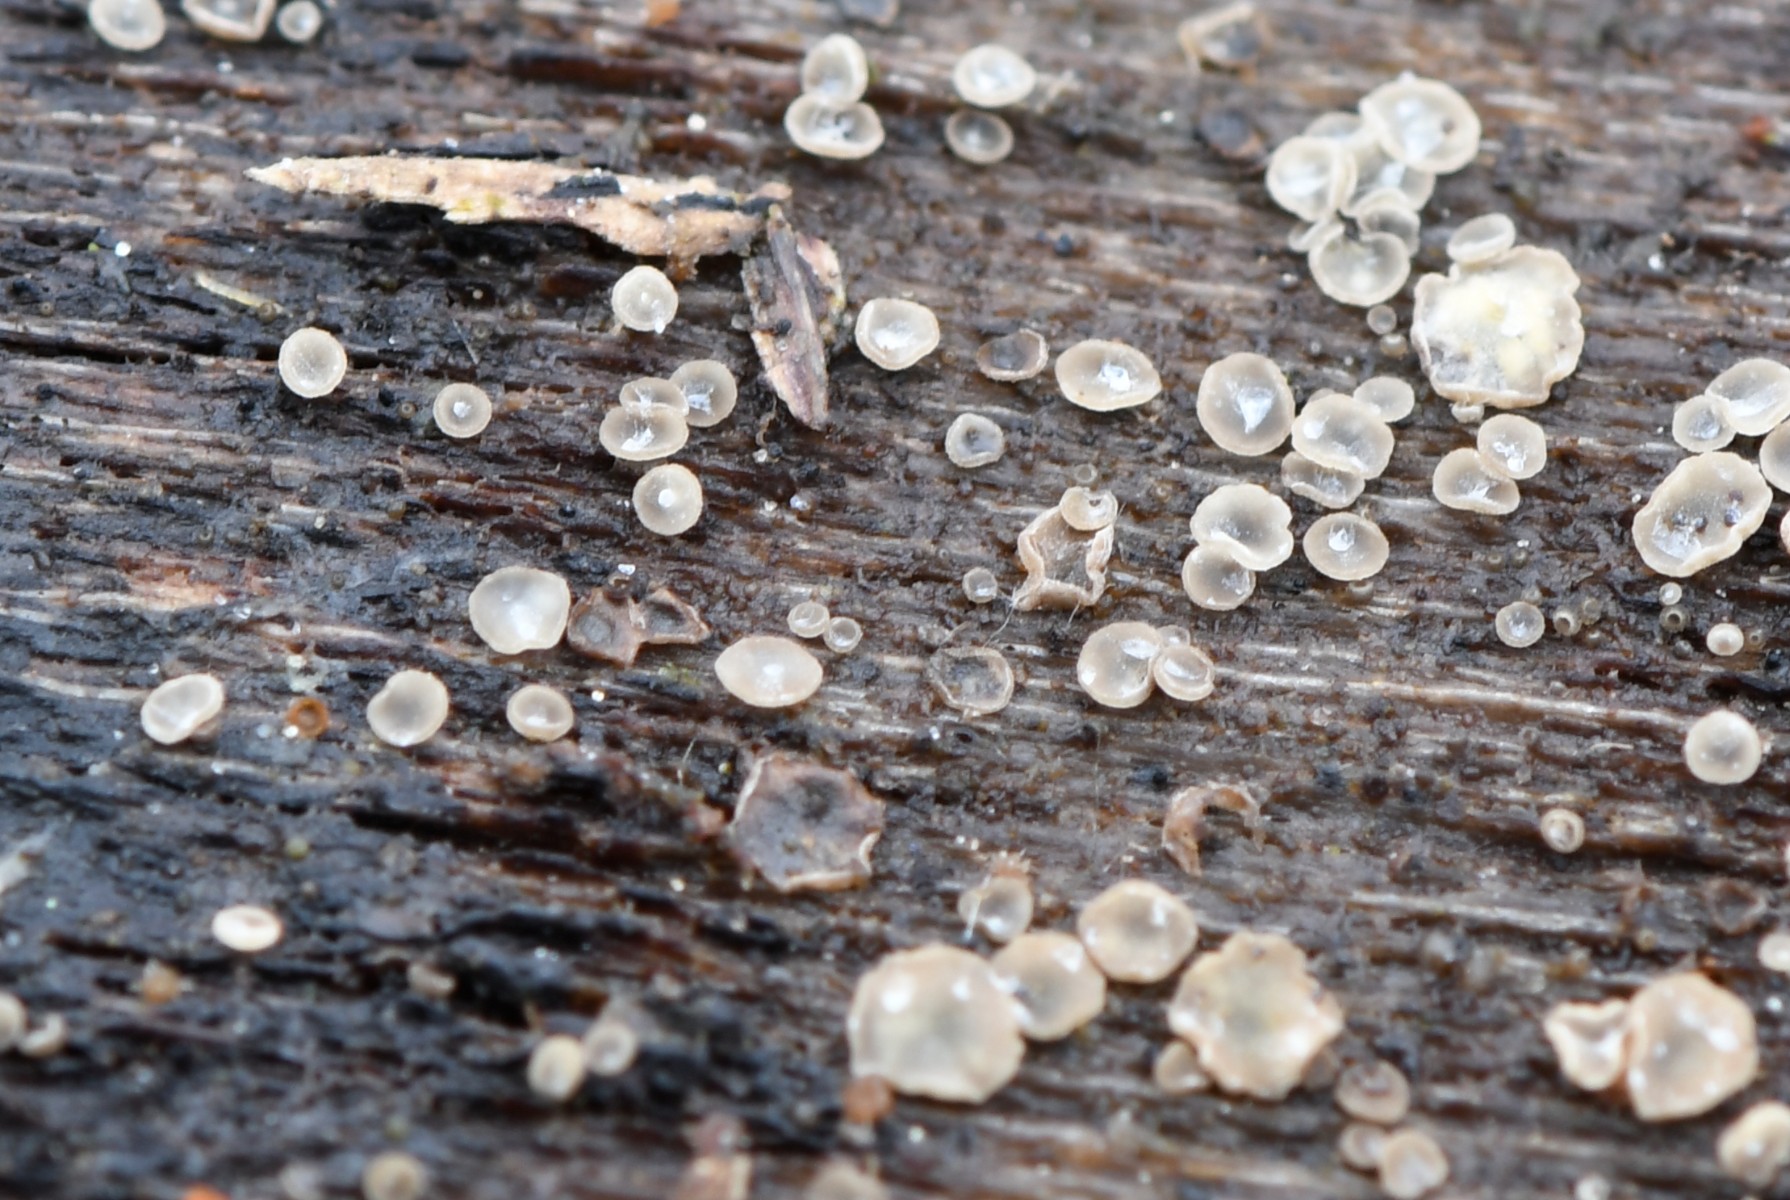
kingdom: Fungi
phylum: Ascomycota
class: Leotiomycetes
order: Helotiales
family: Mollisiaceae
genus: Mollisia
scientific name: Mollisia
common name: gråskive
